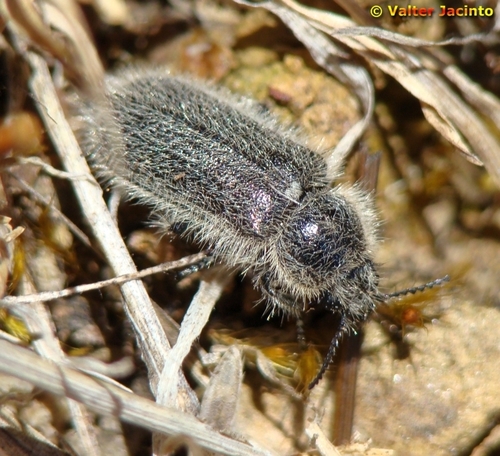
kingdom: Animalia
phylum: Arthropoda
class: Insecta
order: Coleoptera
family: Melyridae
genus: Enicopus
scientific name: Enicopus
